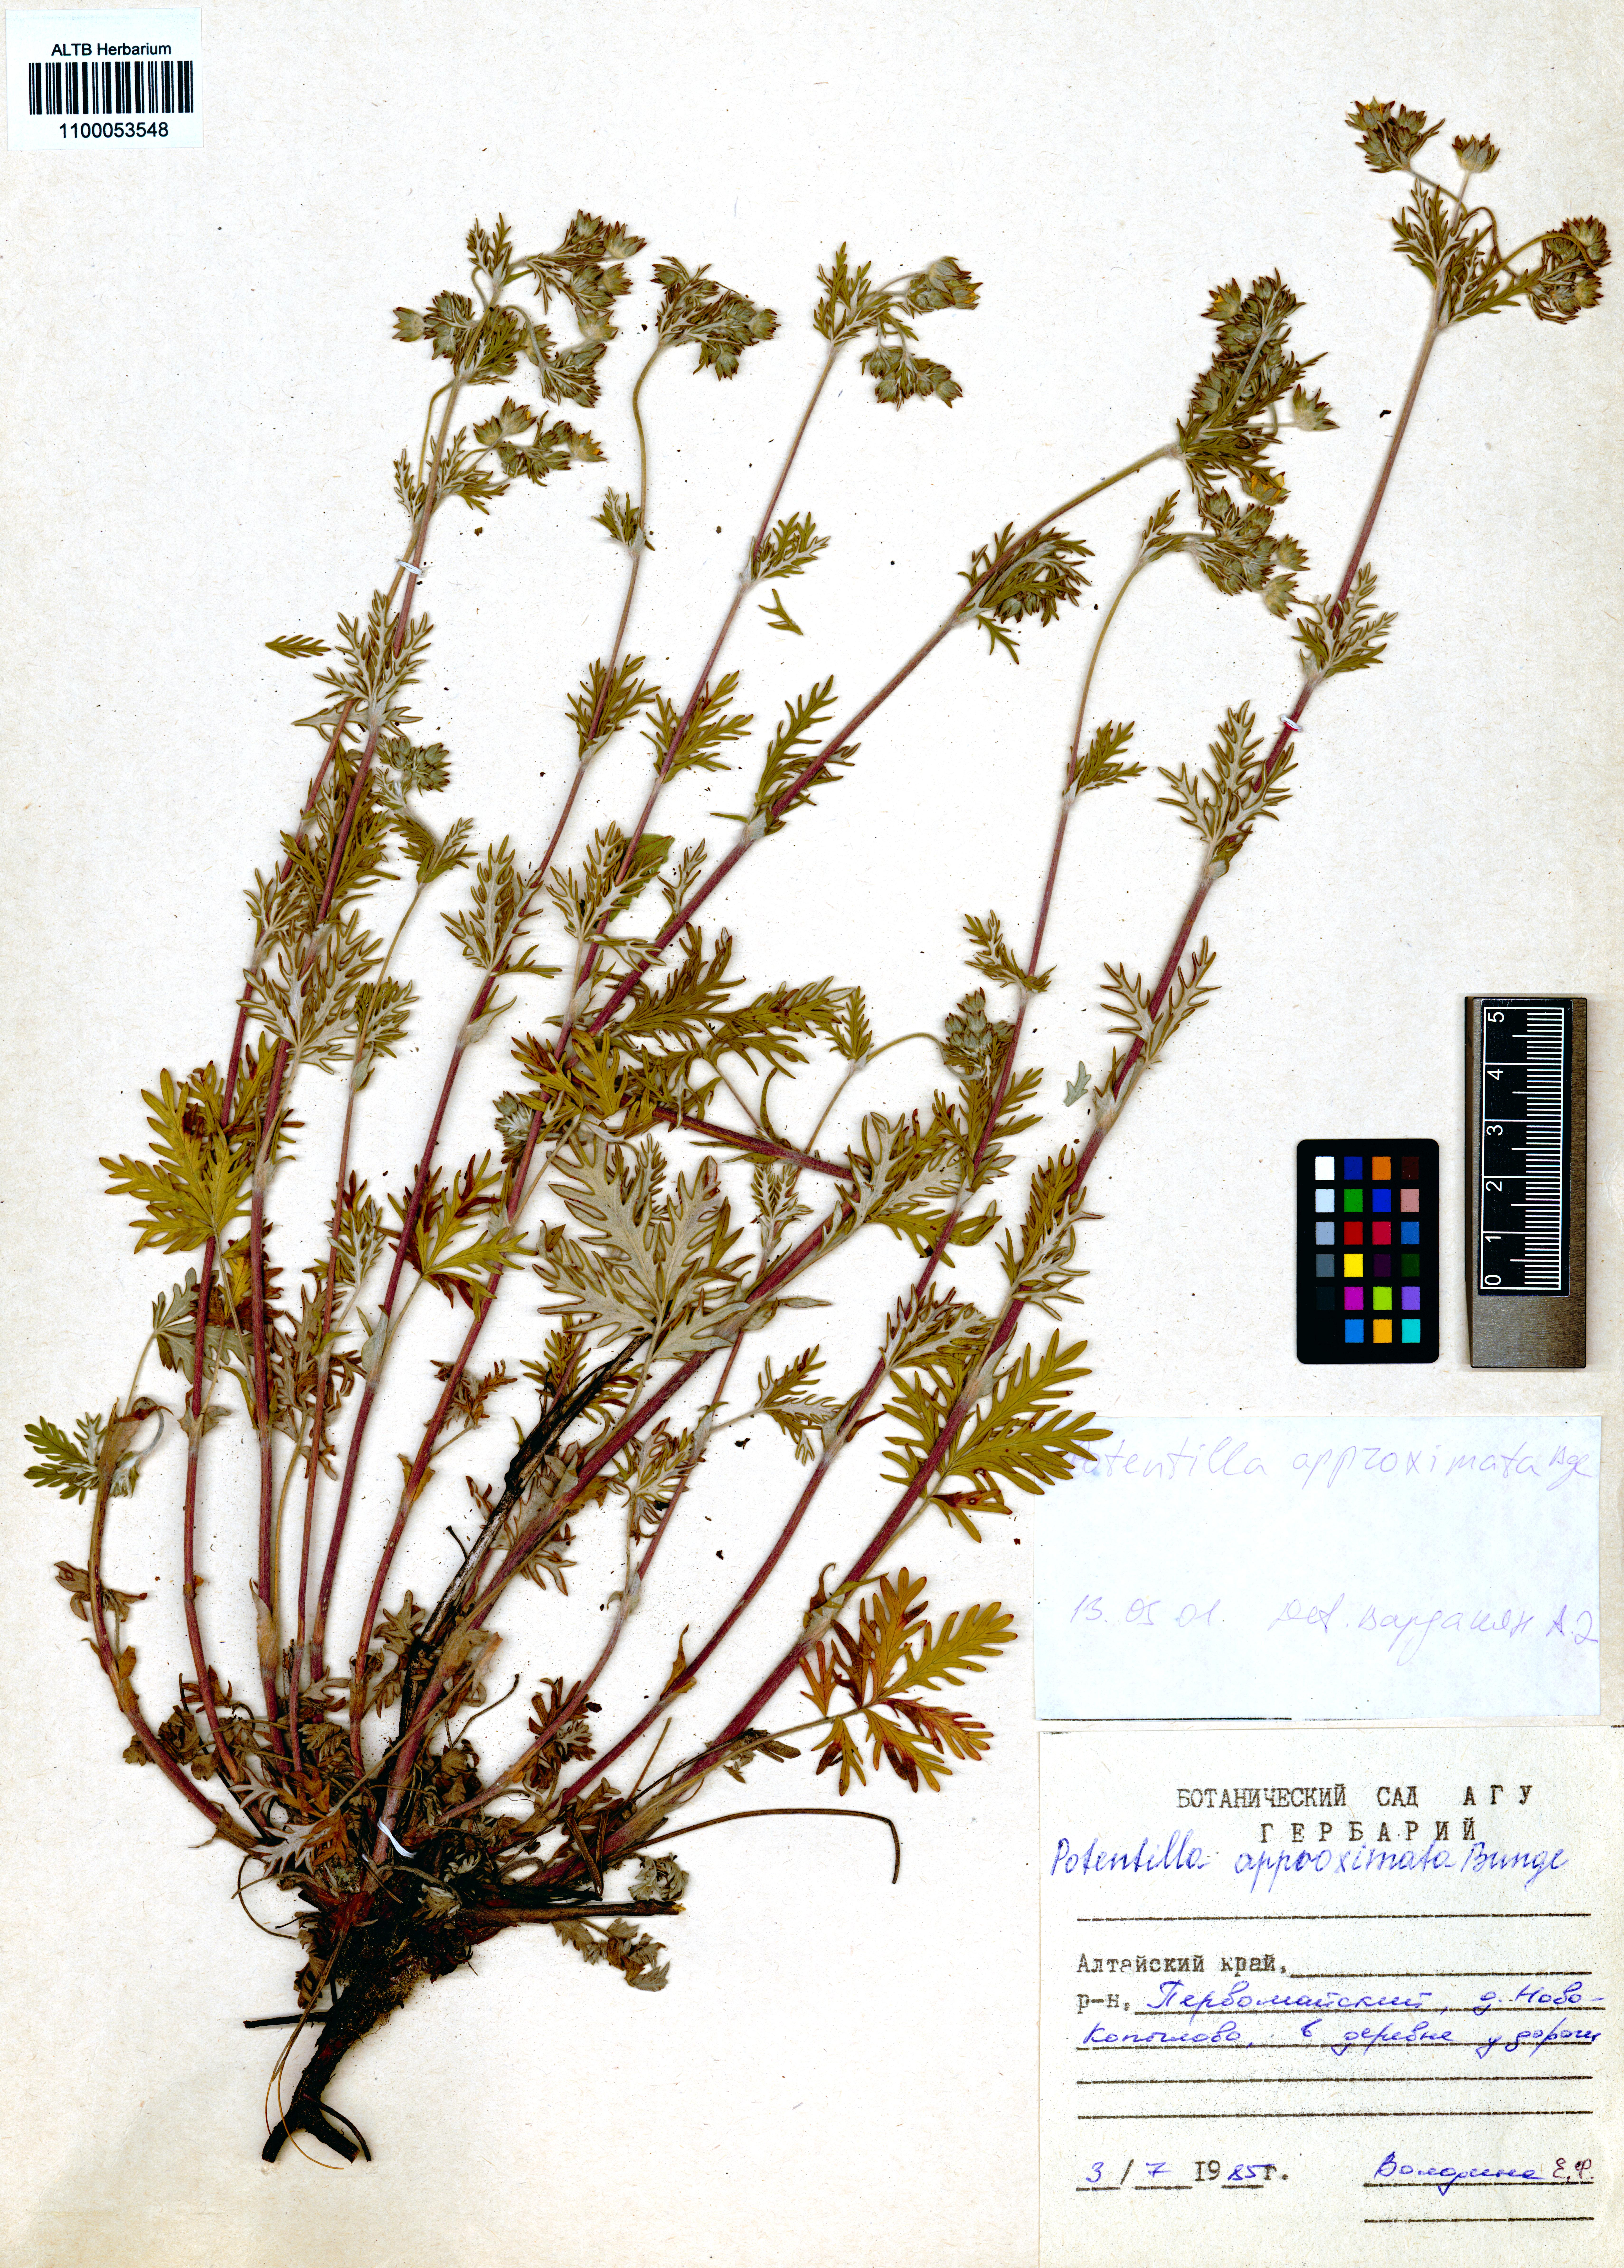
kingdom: Plantae
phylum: Tracheophyta
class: Magnoliopsida
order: Rosales
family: Rosaceae
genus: Potentilla
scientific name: Potentilla conferta
